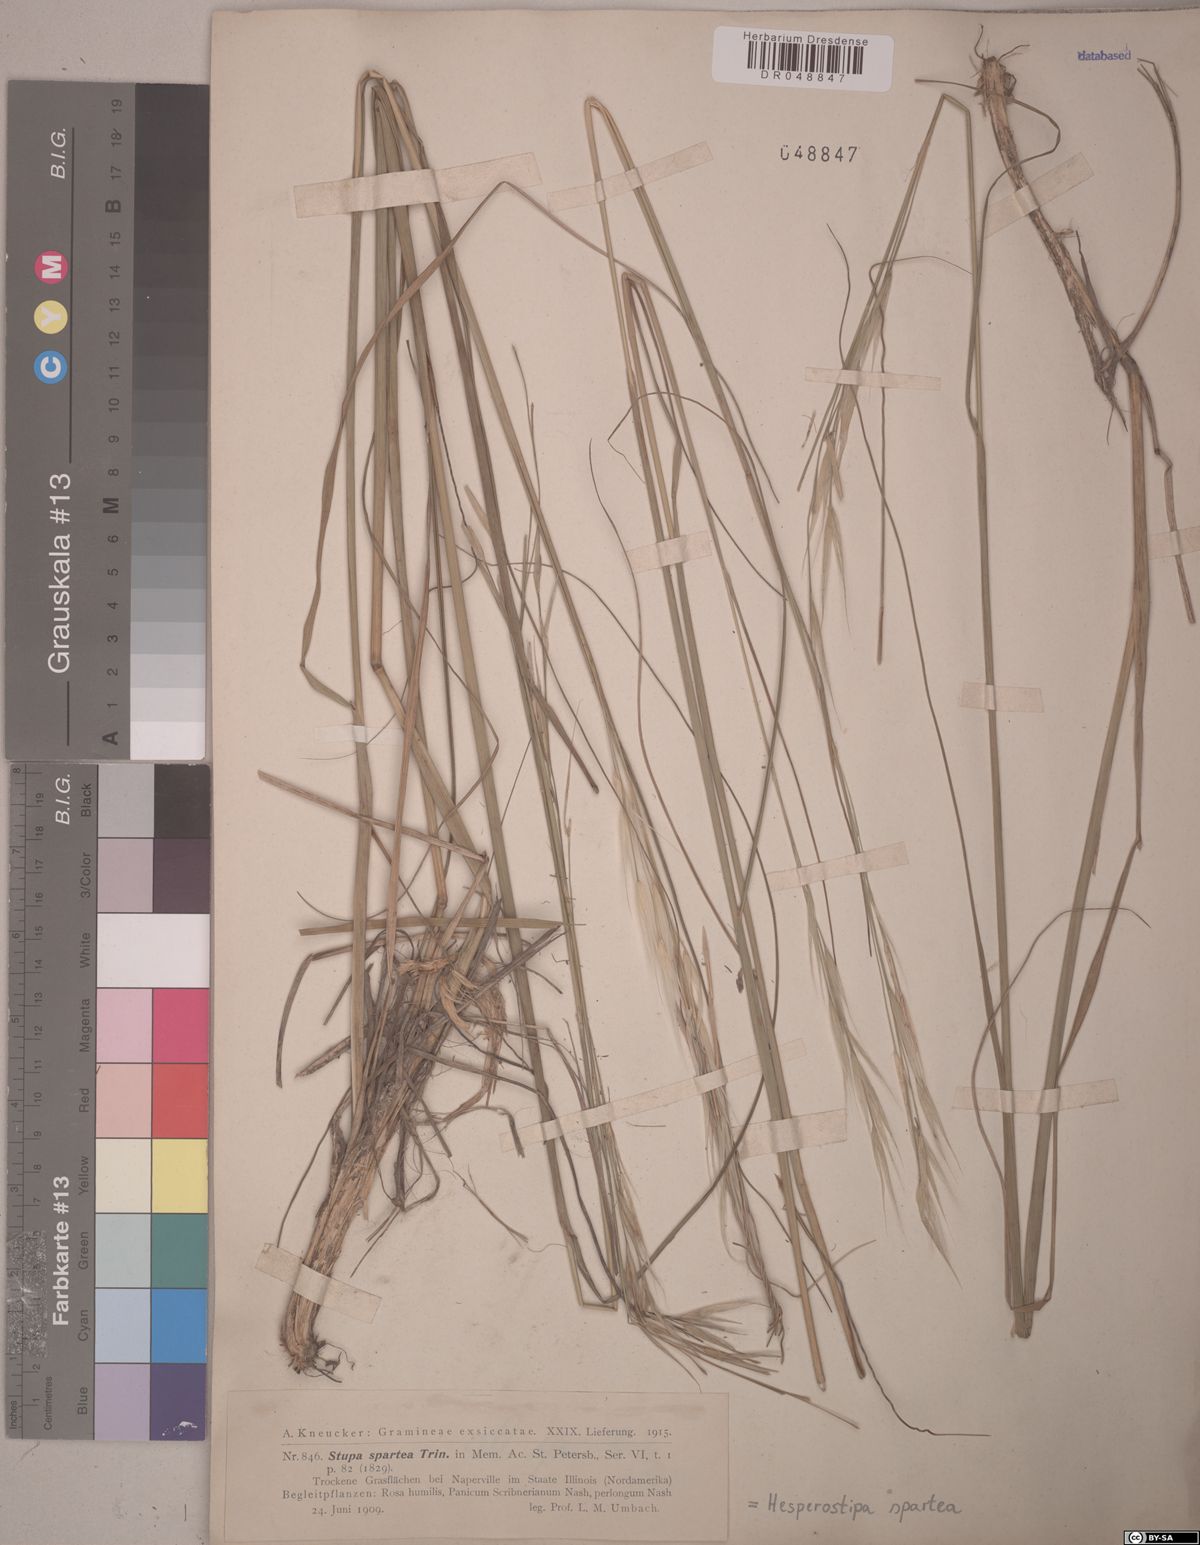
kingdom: Plantae
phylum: Tracheophyta
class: Liliopsida
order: Poales
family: Poaceae
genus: Hesperostipa
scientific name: Hesperostipa spartea
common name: Porcupine grass
